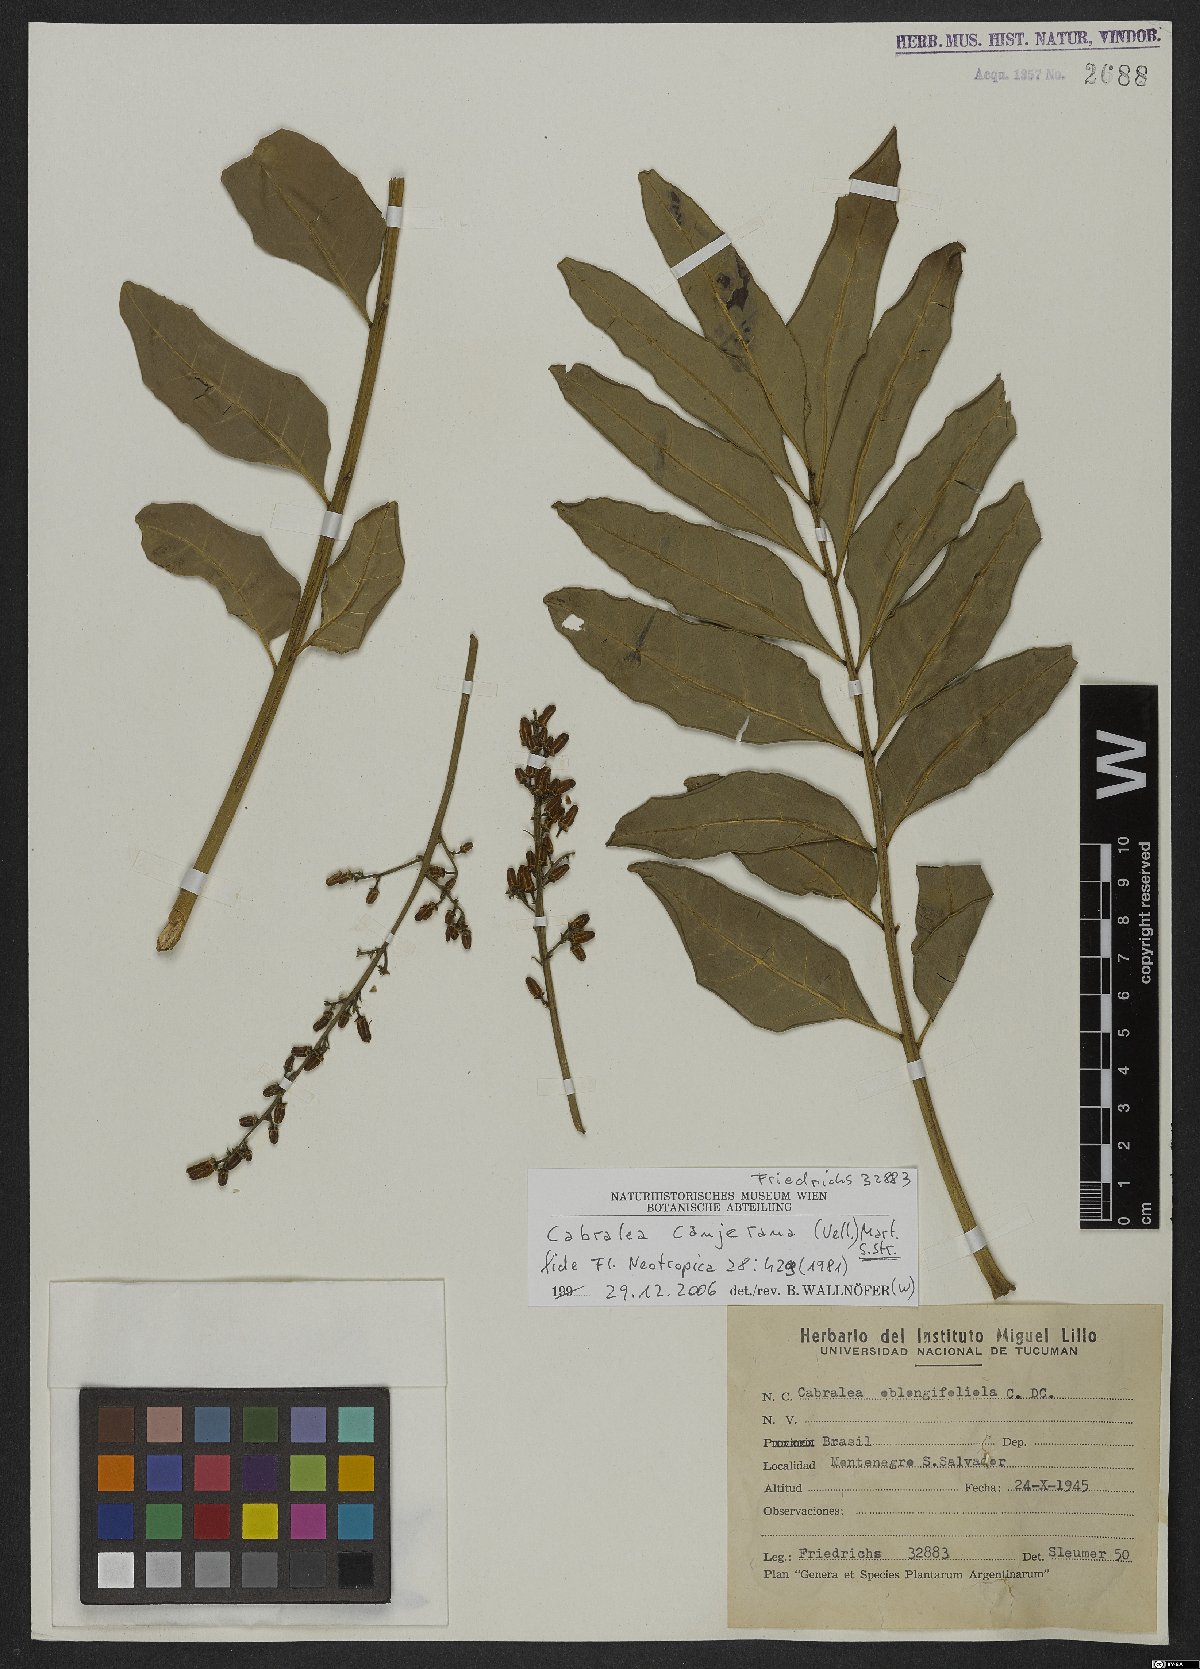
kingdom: Plantae
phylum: Tracheophyta
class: Magnoliopsida
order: Sapindales
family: Meliaceae
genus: Cabralea
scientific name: Cabralea canjerana
